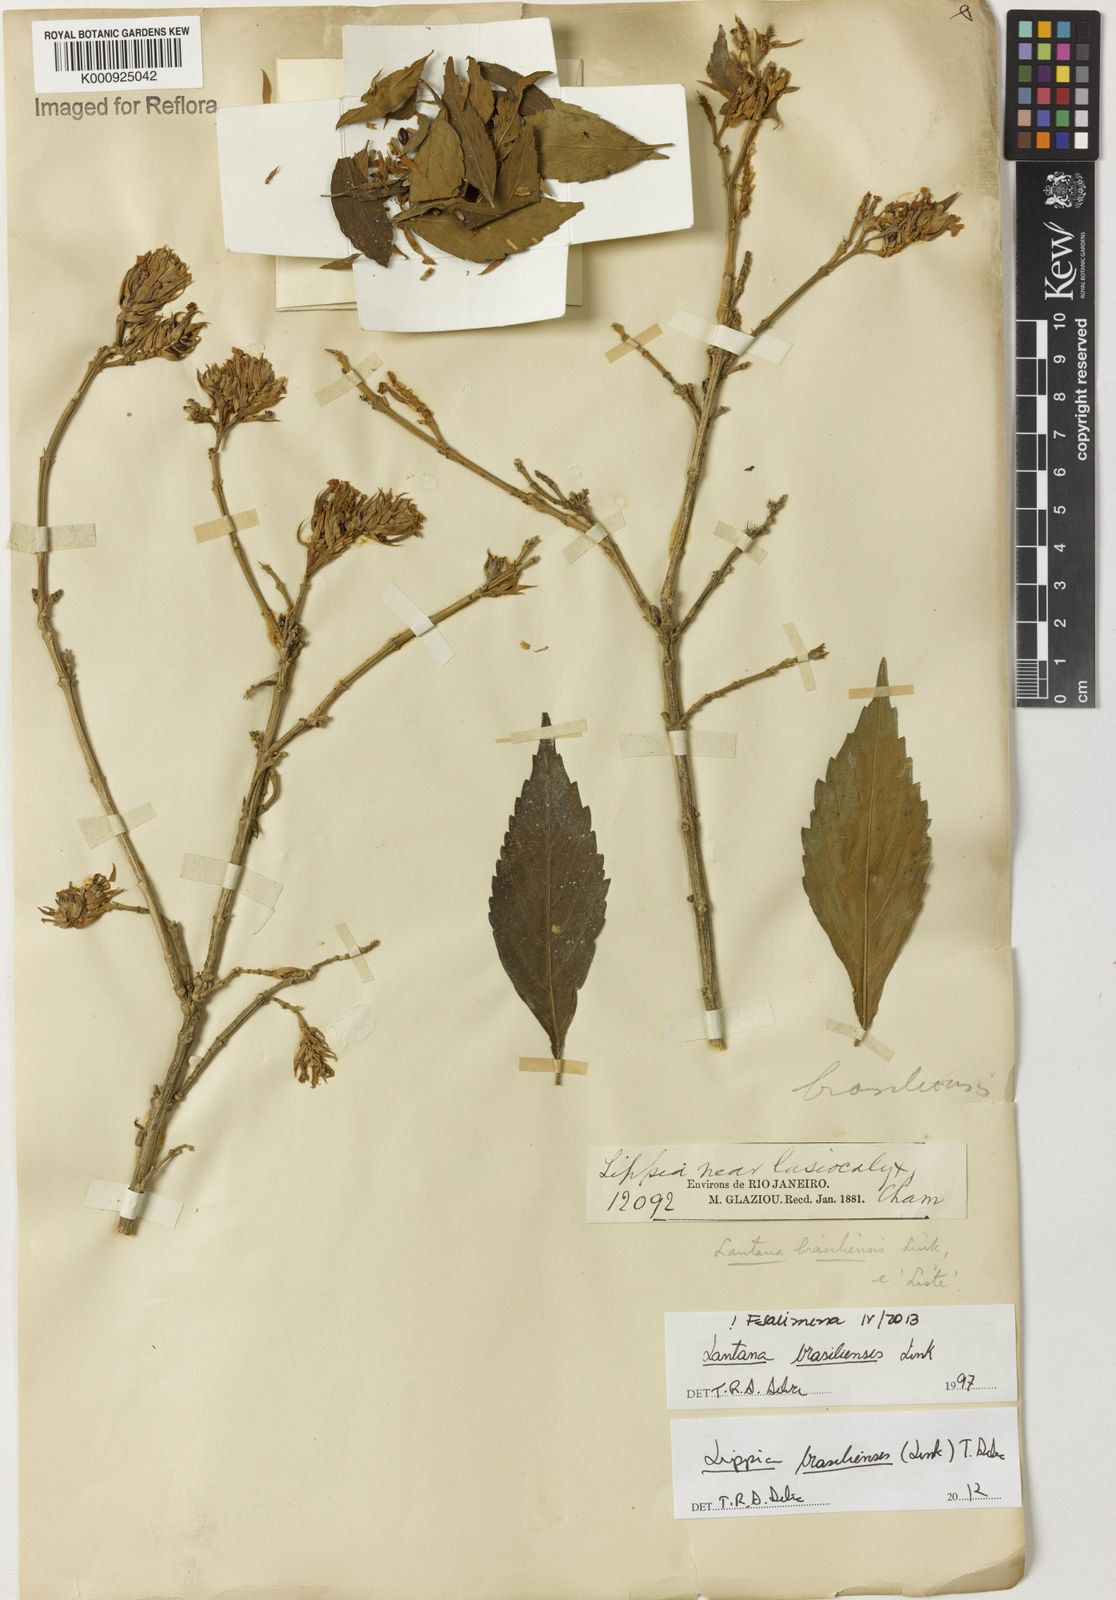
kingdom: Plantae
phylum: Tracheophyta
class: Magnoliopsida
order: Lamiales
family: Verbenaceae
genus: Lippia
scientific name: Lippia brasiliensis
